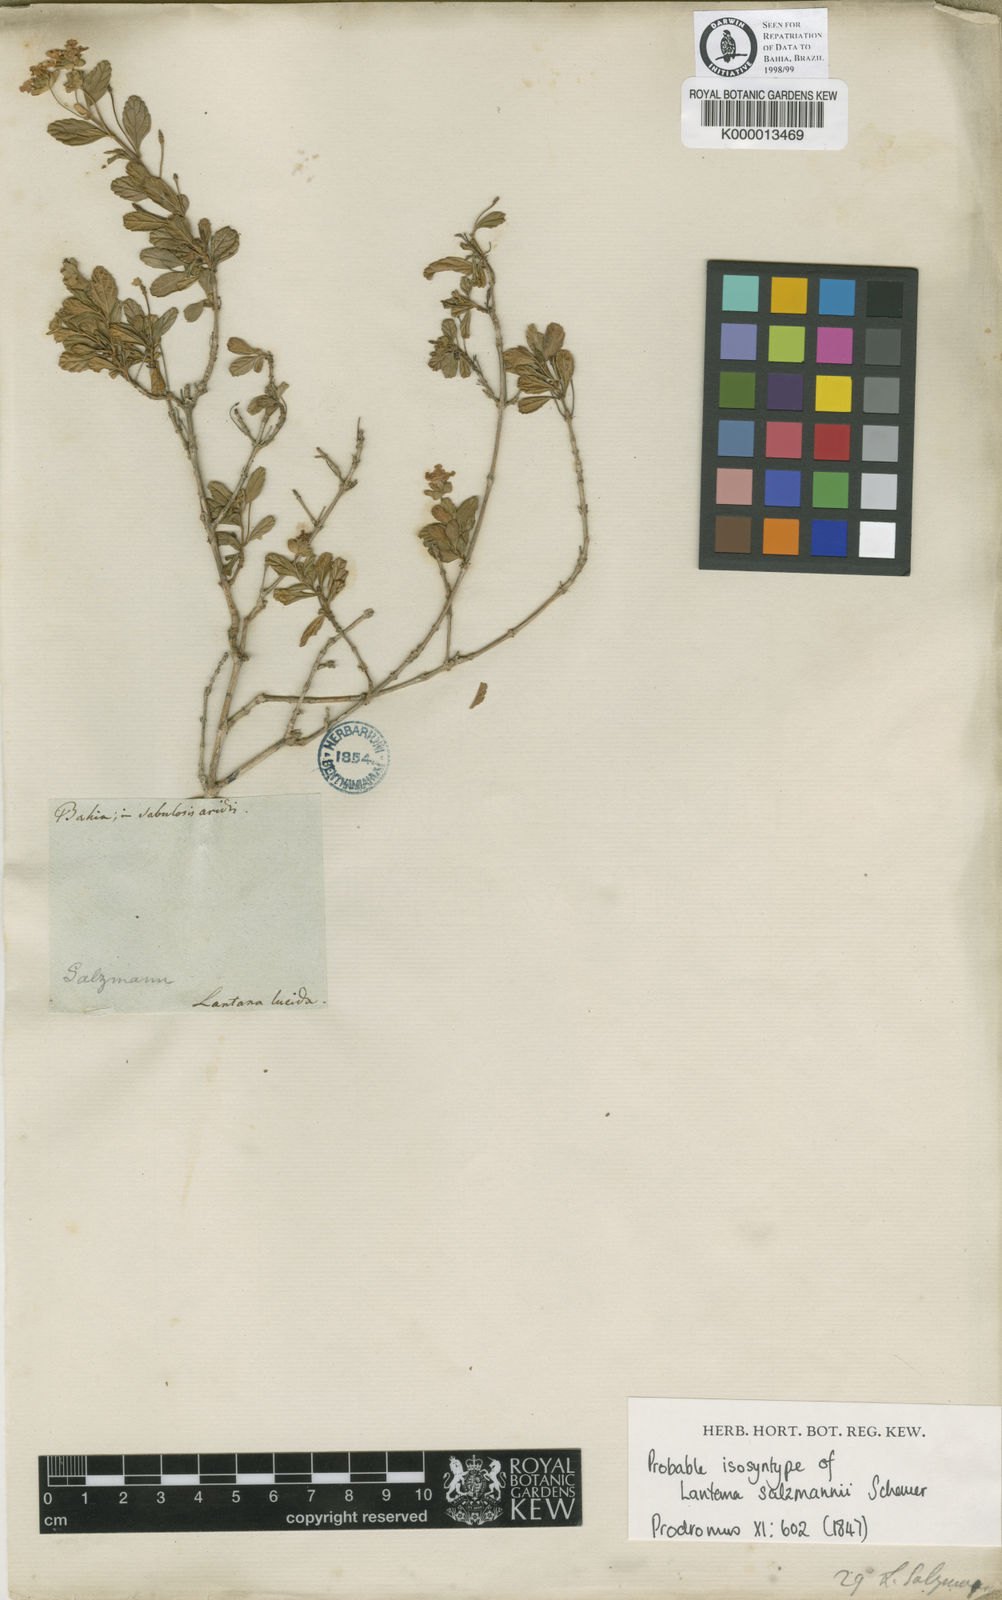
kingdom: Plantae
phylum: Tracheophyta
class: Magnoliopsida
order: Lamiales
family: Verbenaceae
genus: Lantana
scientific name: Lantana salzmannii
